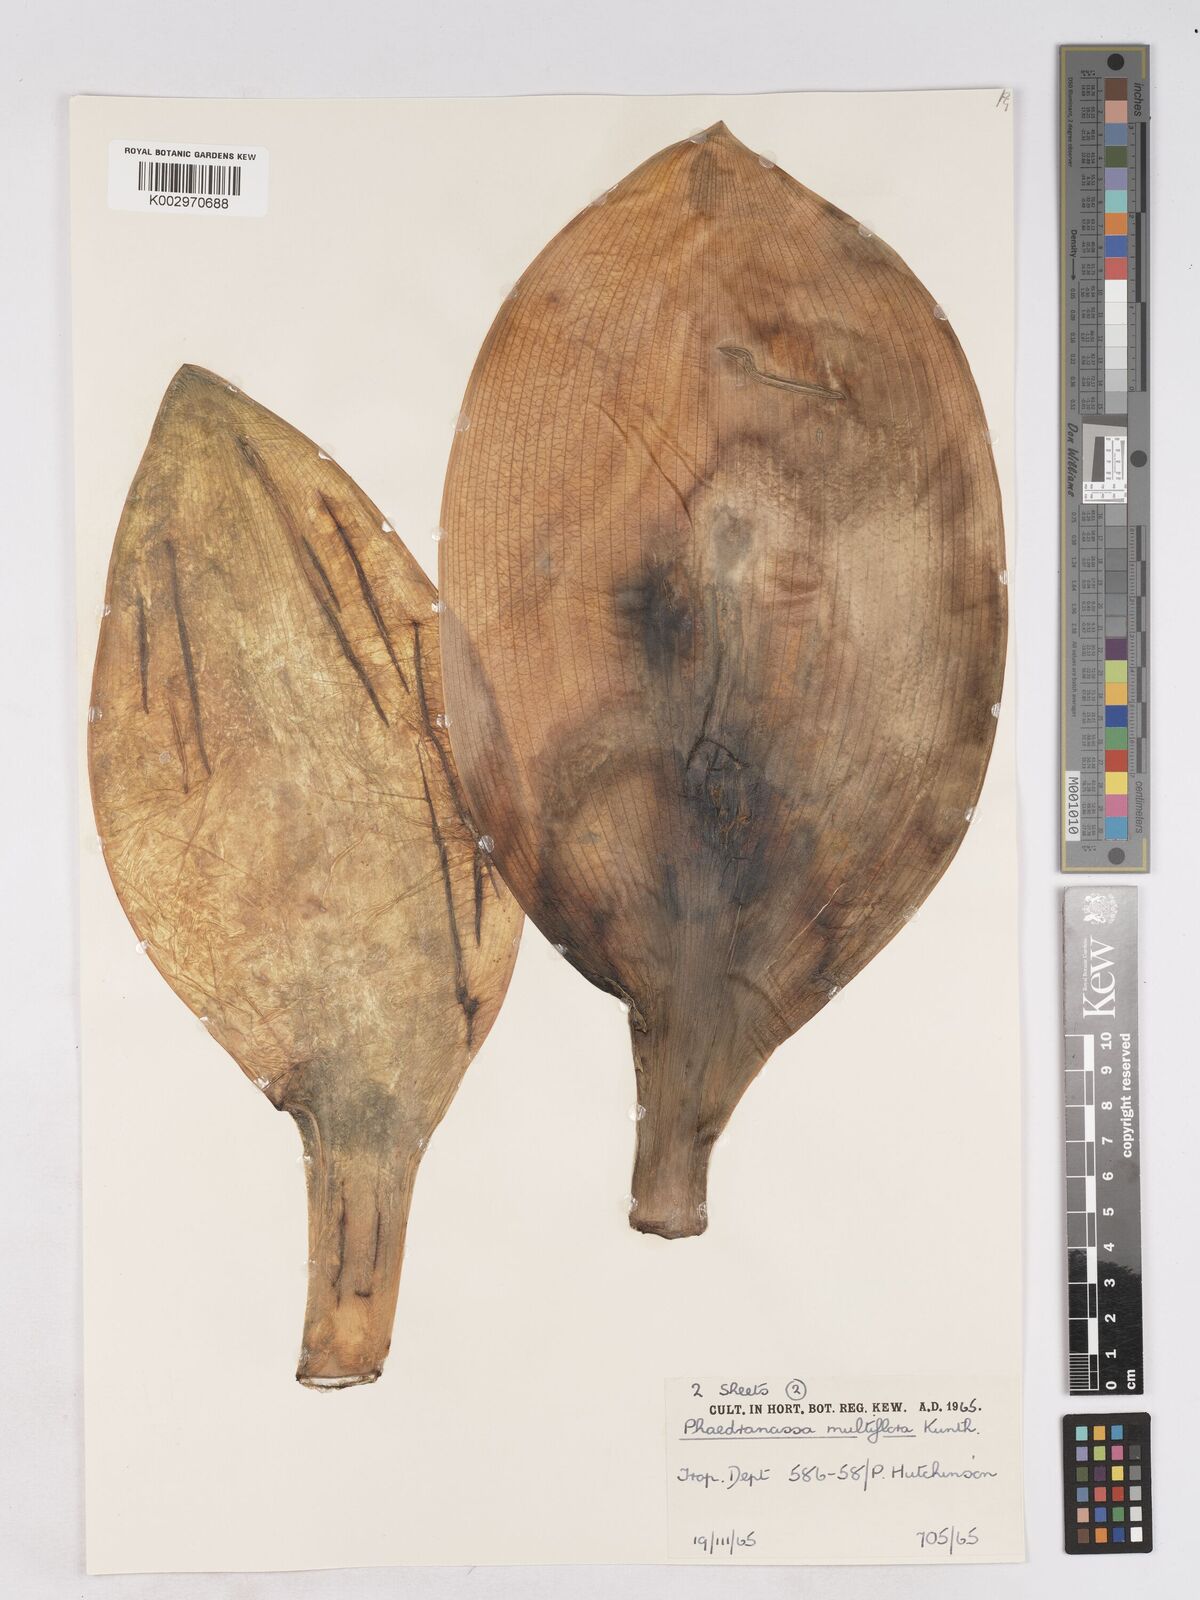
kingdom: Plantae
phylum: Tracheophyta
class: Liliopsida
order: Asparagales
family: Amaryllidaceae
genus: Rauhia
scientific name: Rauhia multiflora
